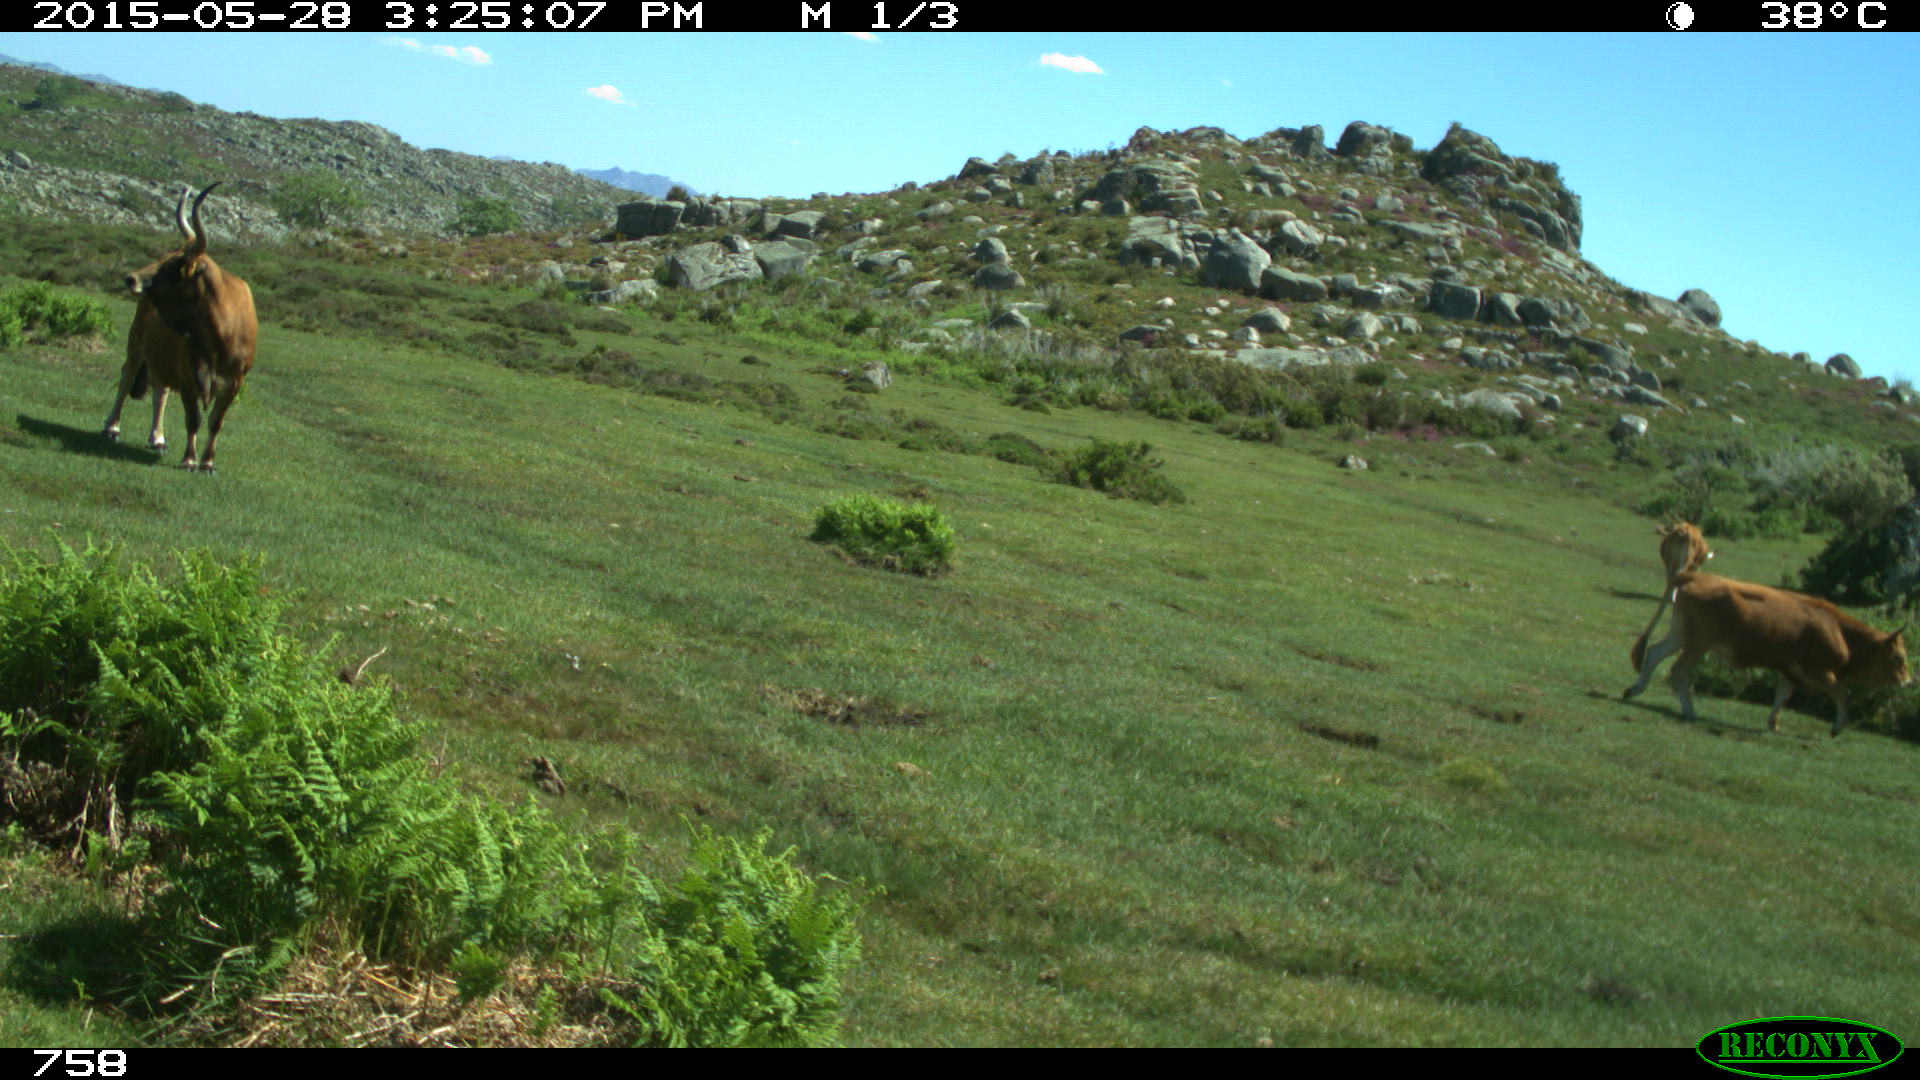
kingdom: Animalia
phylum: Chordata
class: Mammalia
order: Artiodactyla
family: Bovidae
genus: Bos
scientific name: Bos taurus
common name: Domesticated cattle
